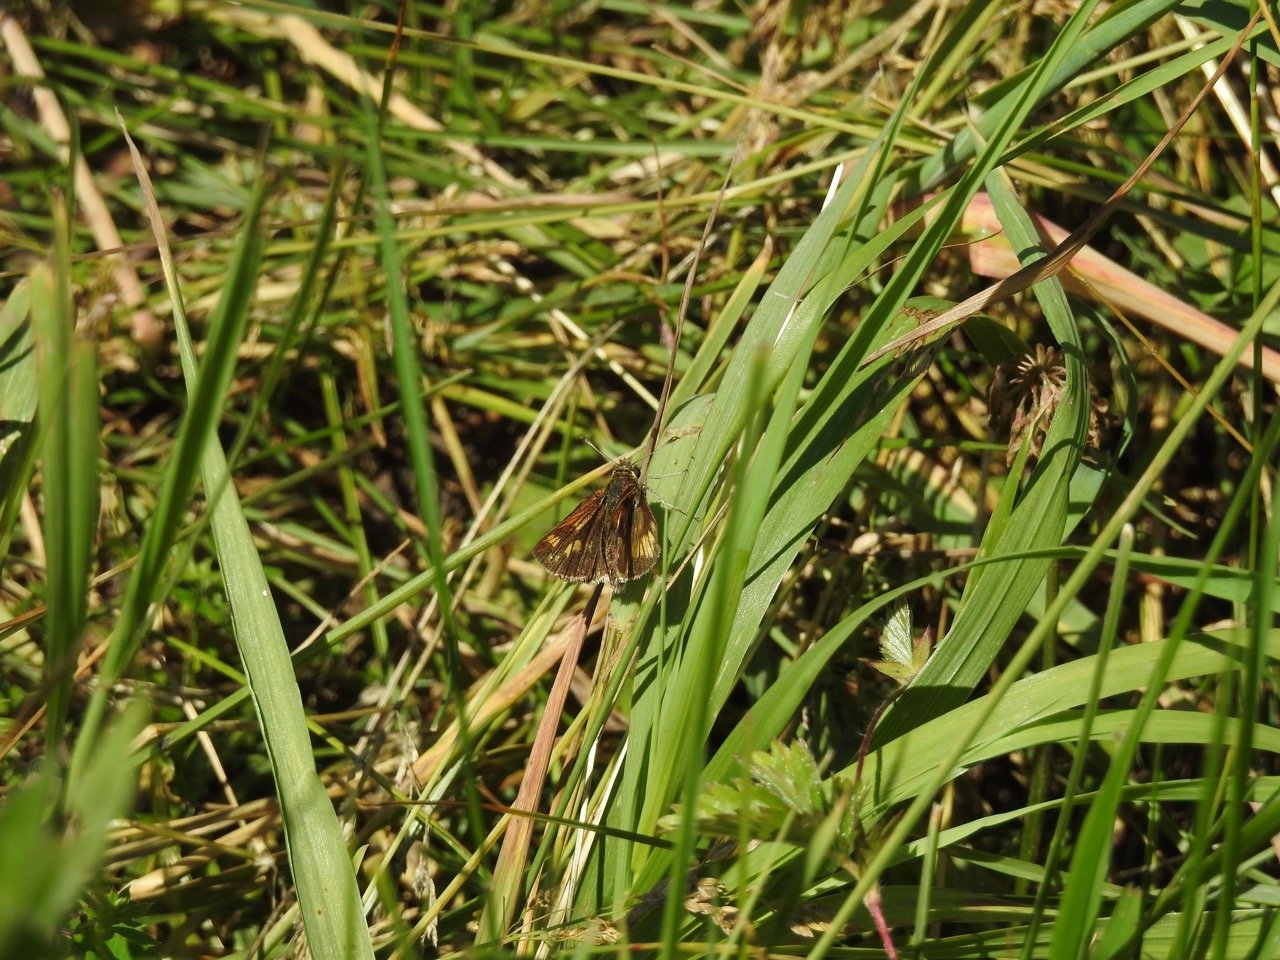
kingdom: Animalia
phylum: Arthropoda
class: Insecta
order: Lepidoptera
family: Hesperiidae
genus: Polites
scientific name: Polites coras
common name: Peck's Skipper
